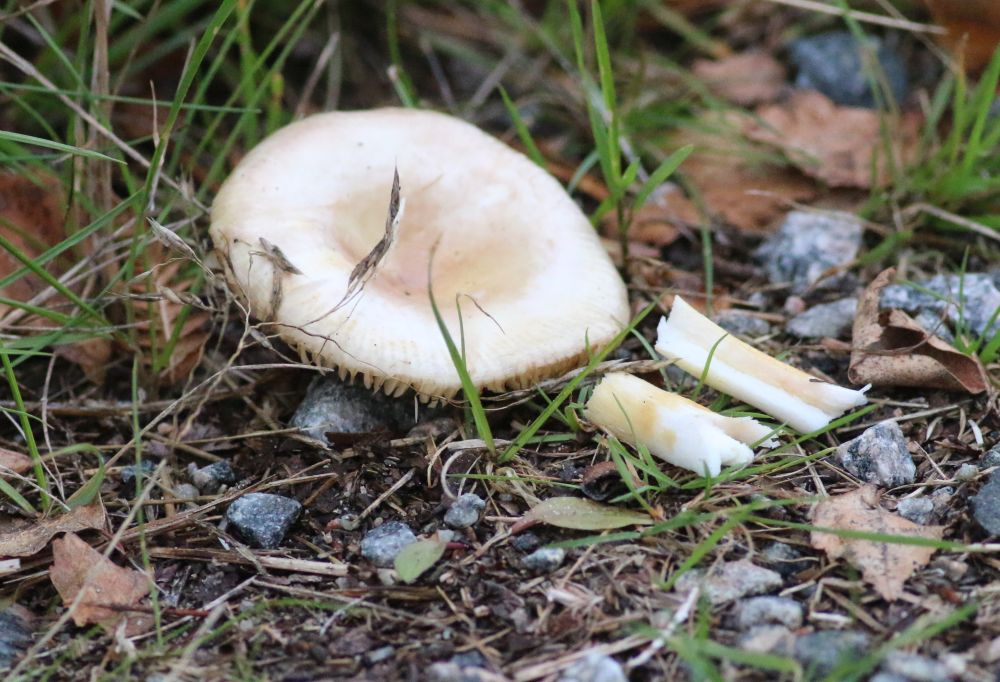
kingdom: Fungi
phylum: Basidiomycota
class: Agaricomycetes
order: Russulales
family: Russulaceae
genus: Russula
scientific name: Russula puellaris
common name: gulstokket skørhat
